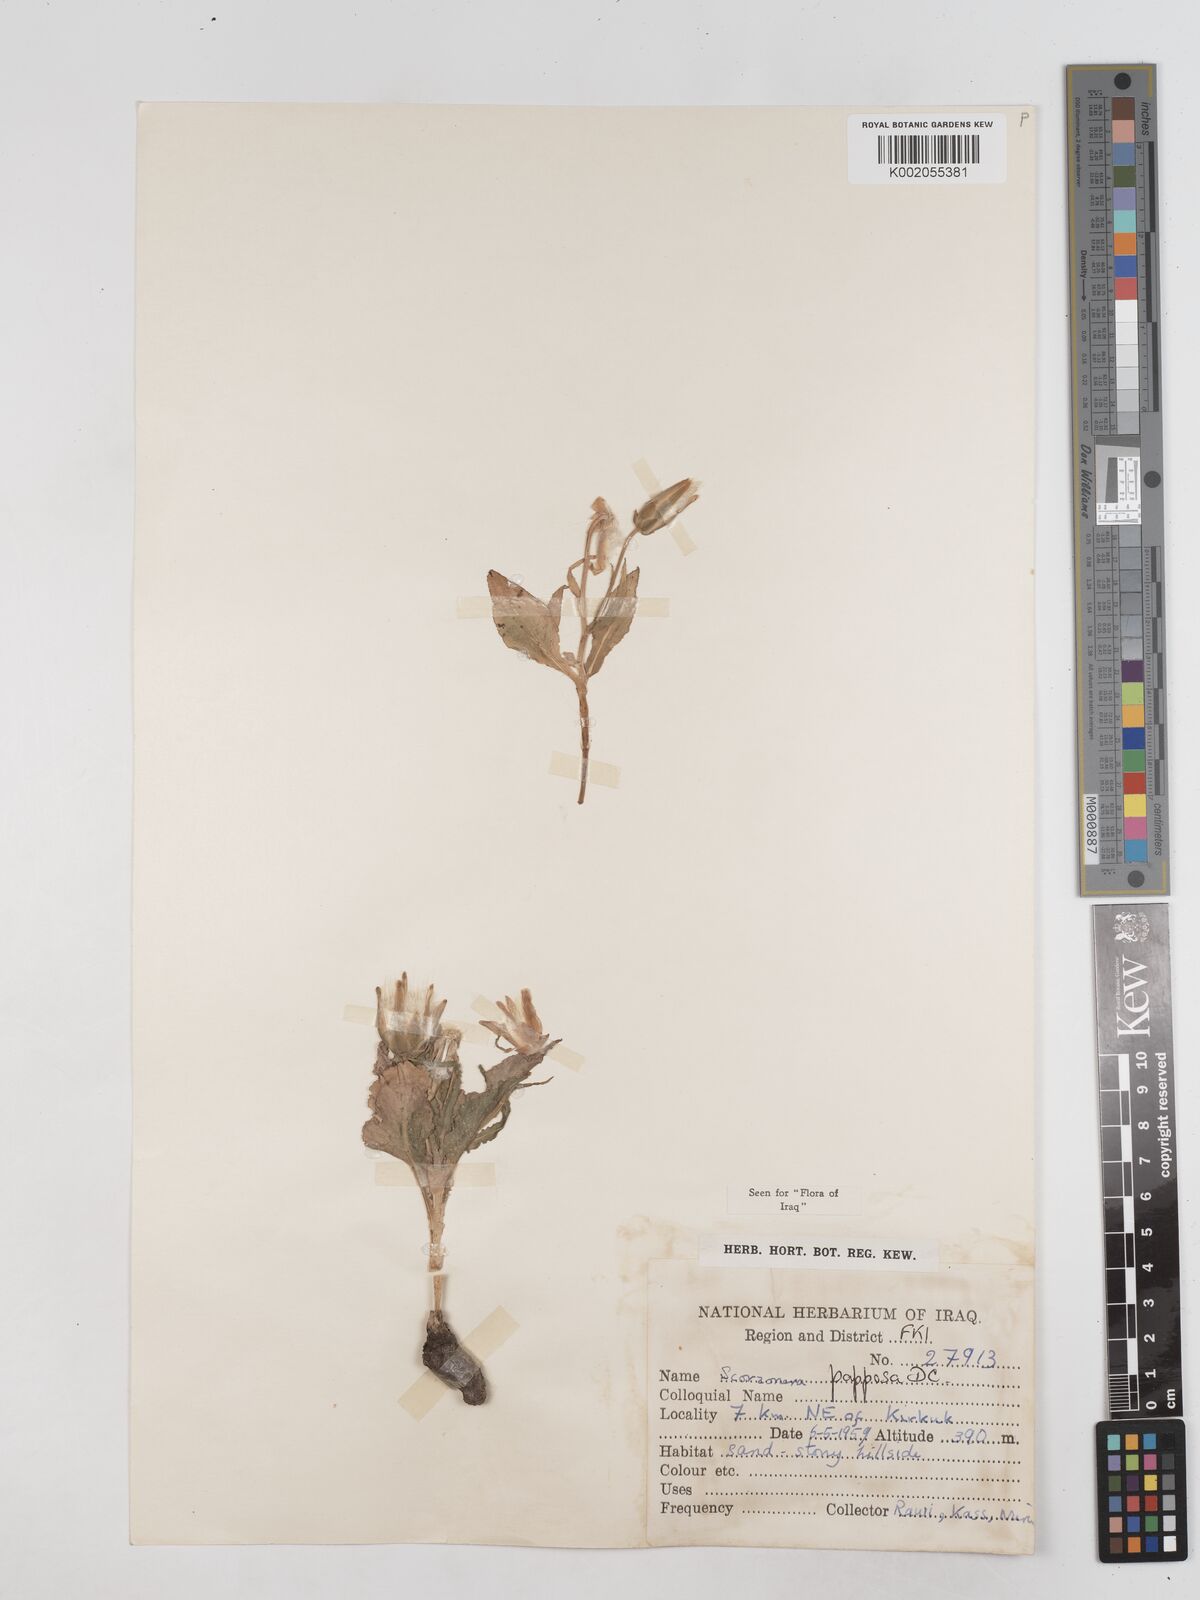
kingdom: Plantae
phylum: Tracheophyta
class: Magnoliopsida
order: Asterales
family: Asteraceae
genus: Pseudopodospermum
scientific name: Pseudopodospermum papposum
